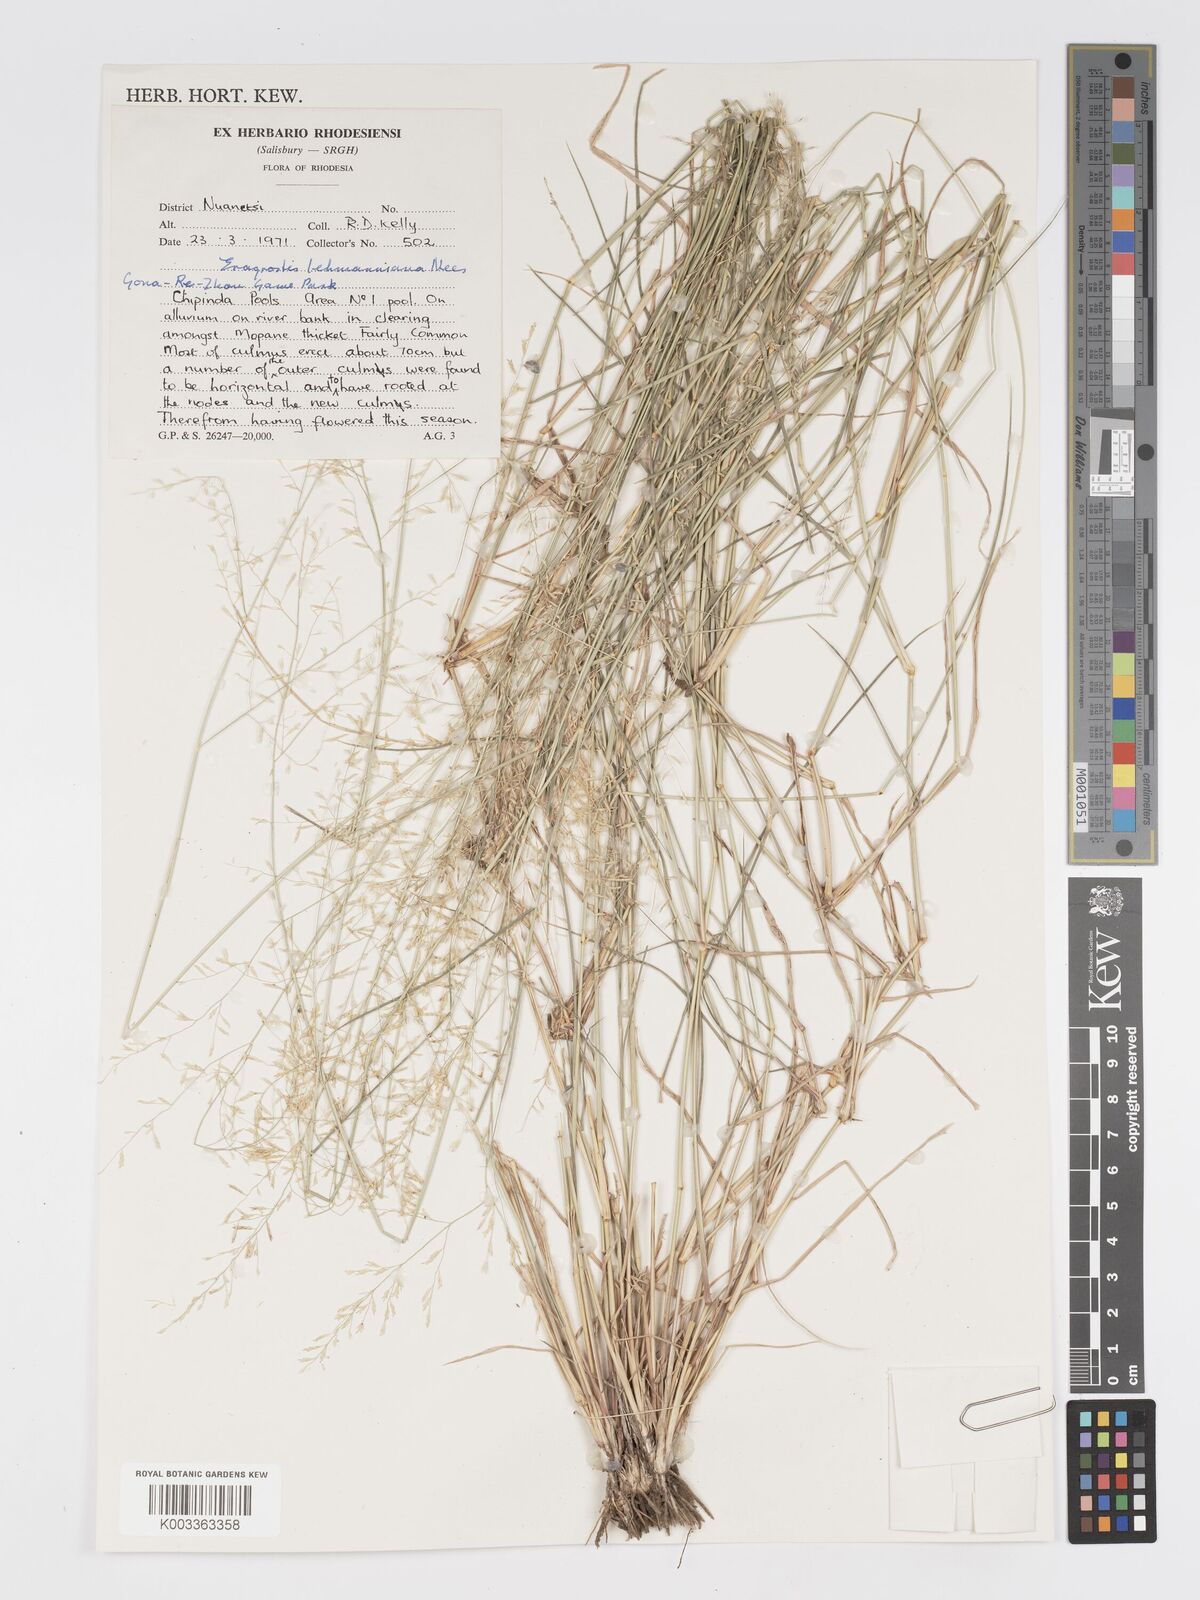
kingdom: Plantae
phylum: Tracheophyta
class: Liliopsida
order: Poales
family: Poaceae
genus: Eragrostis
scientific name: Eragrostis lehmanniana
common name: Lehmann lovegrass
